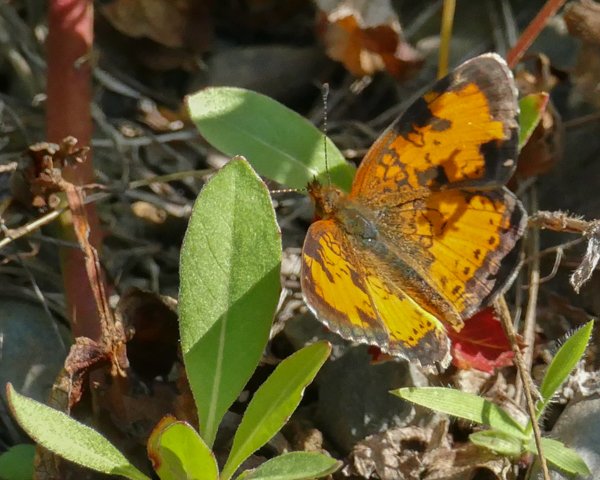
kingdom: Animalia
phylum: Arthropoda
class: Insecta
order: Lepidoptera
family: Nymphalidae
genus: Phyciodes
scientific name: Phyciodes tharos
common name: Northern Crescent
